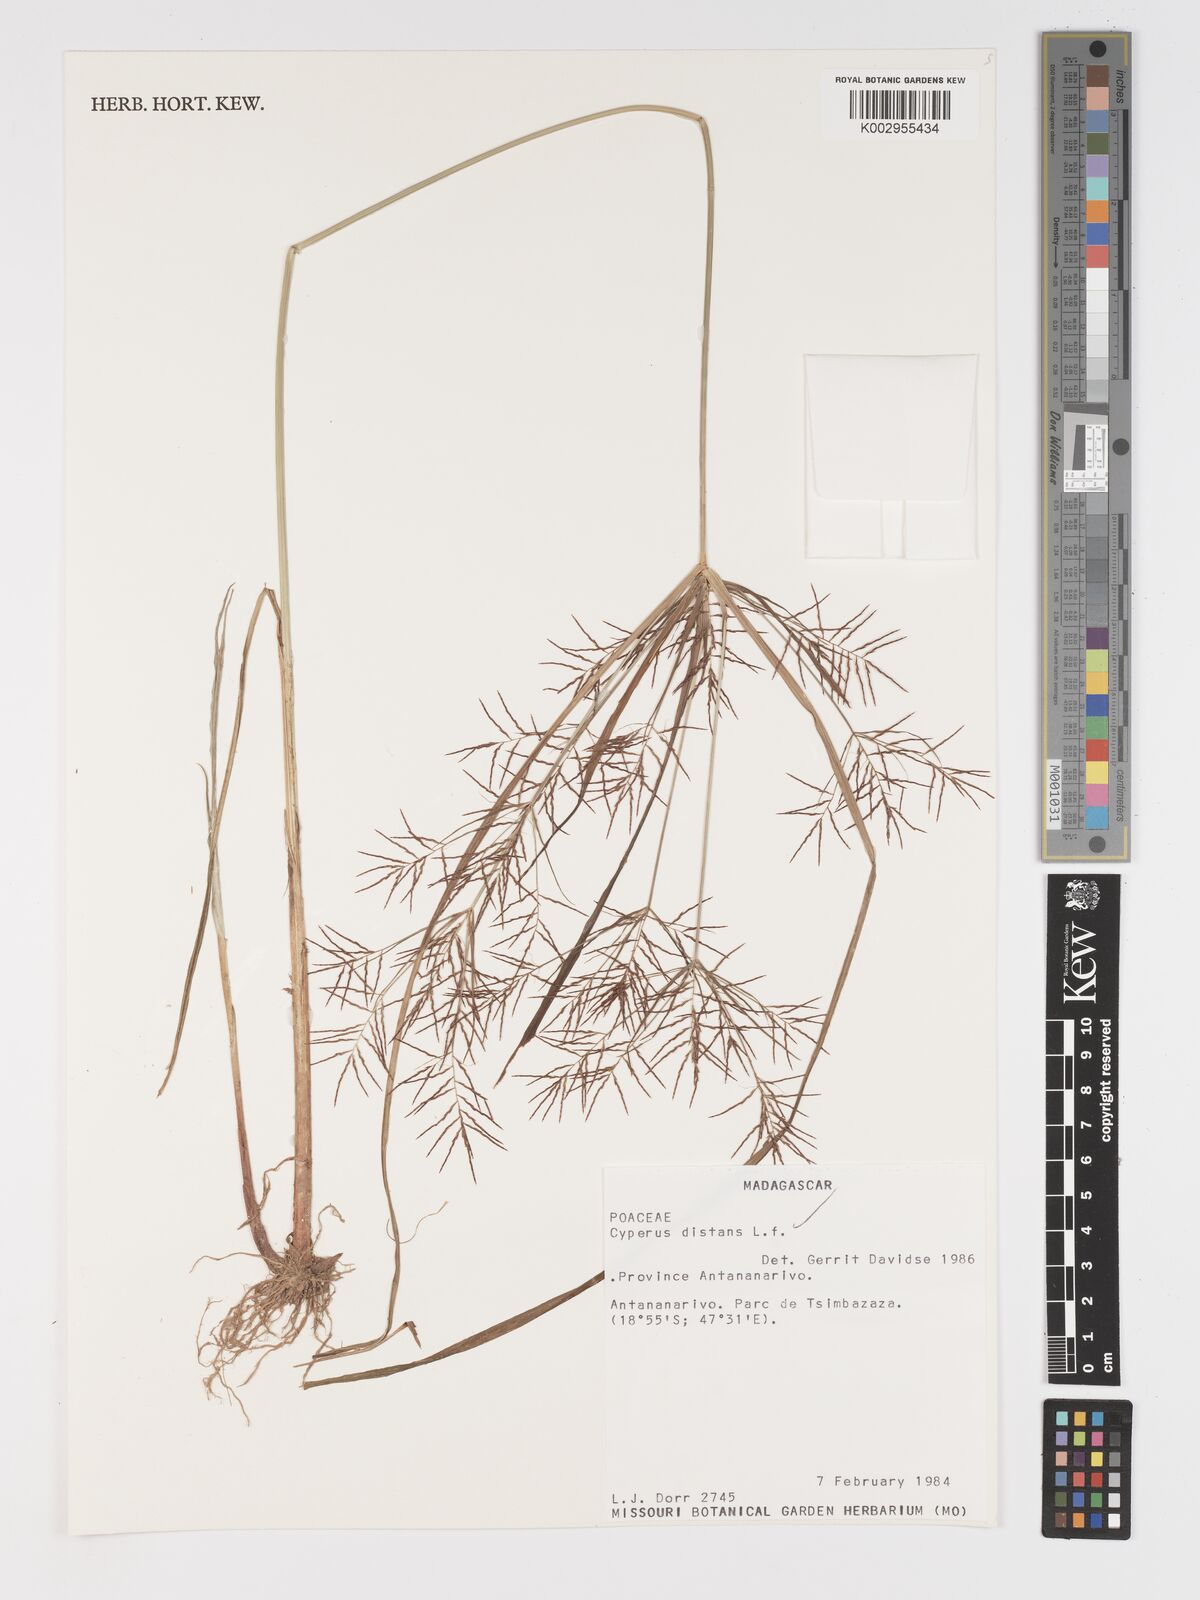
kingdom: Plantae
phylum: Tracheophyta
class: Liliopsida
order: Poales
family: Cyperaceae
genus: Cyperus
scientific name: Cyperus distans
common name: Slender cyperus
